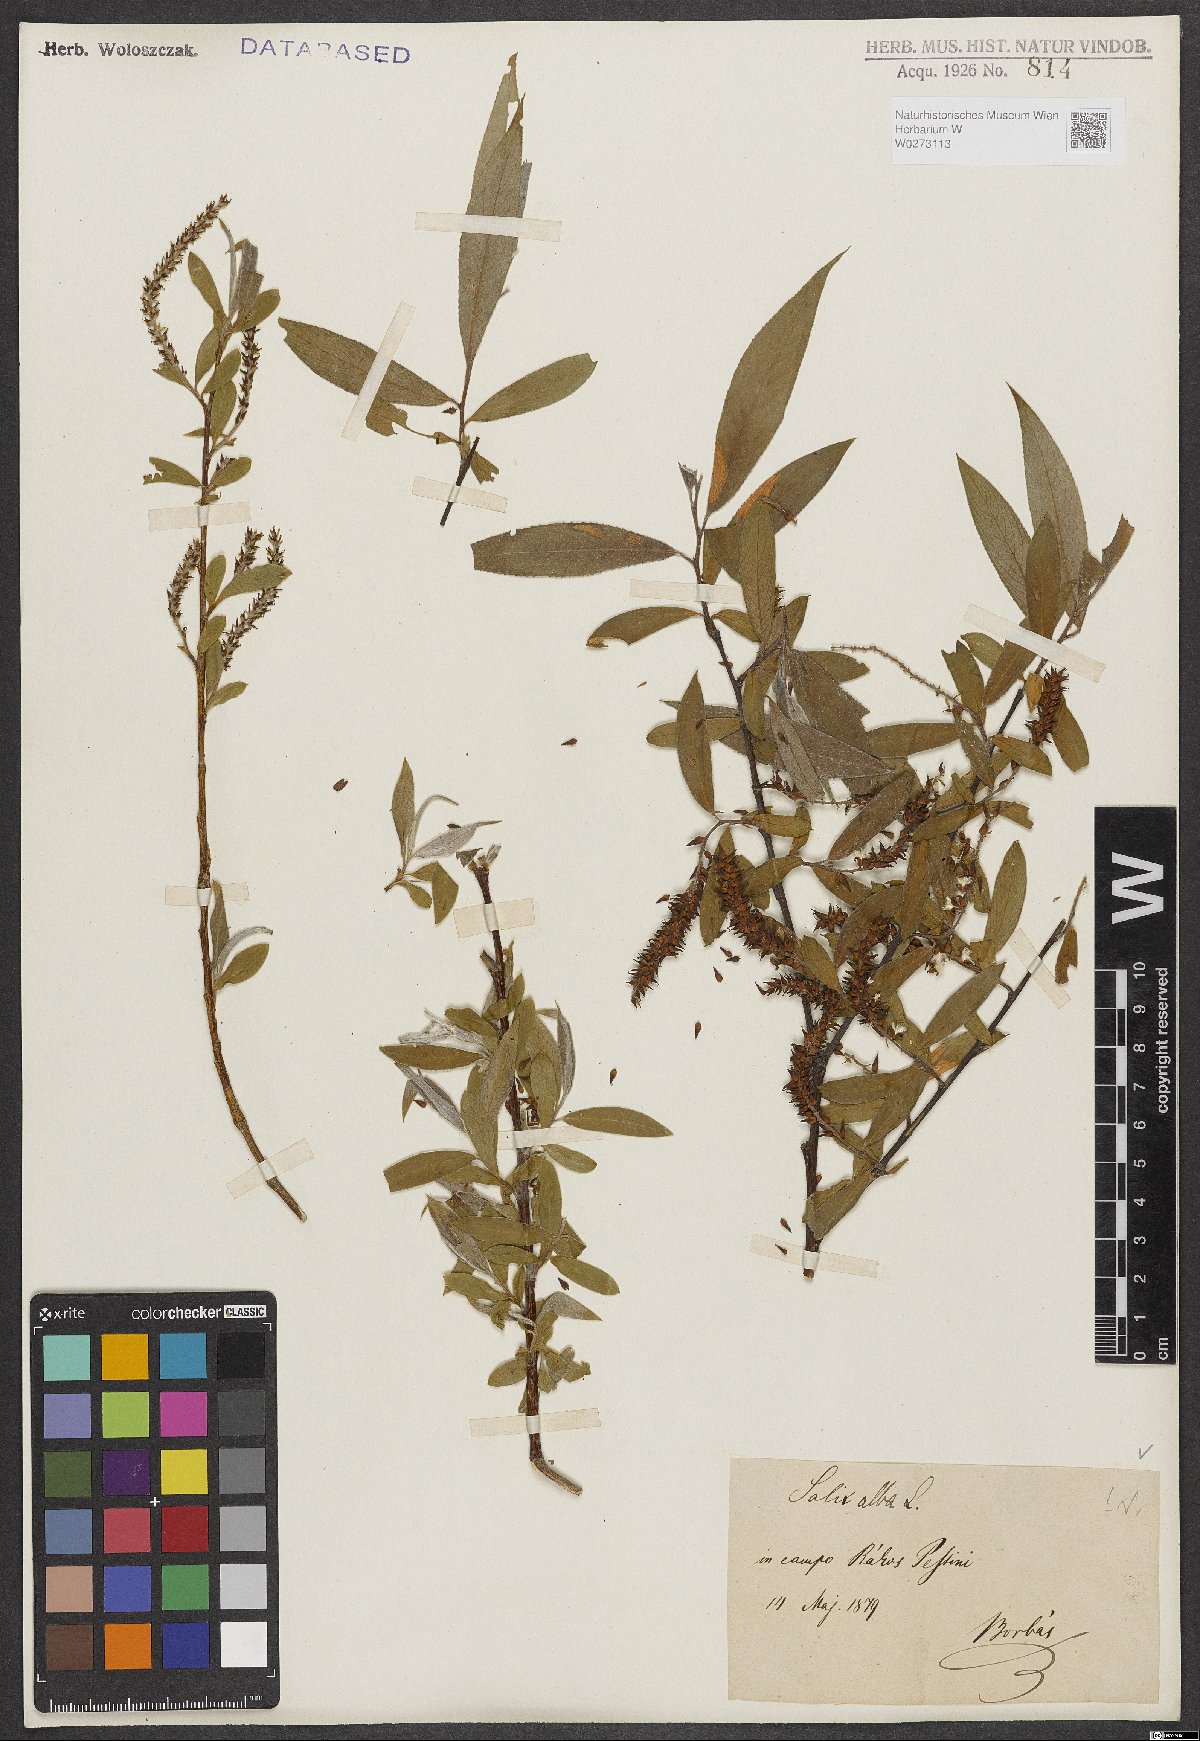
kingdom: Plantae
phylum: Tracheophyta
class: Magnoliopsida
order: Malpighiales
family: Salicaceae
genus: Salix
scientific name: Salix alba
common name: White willow
